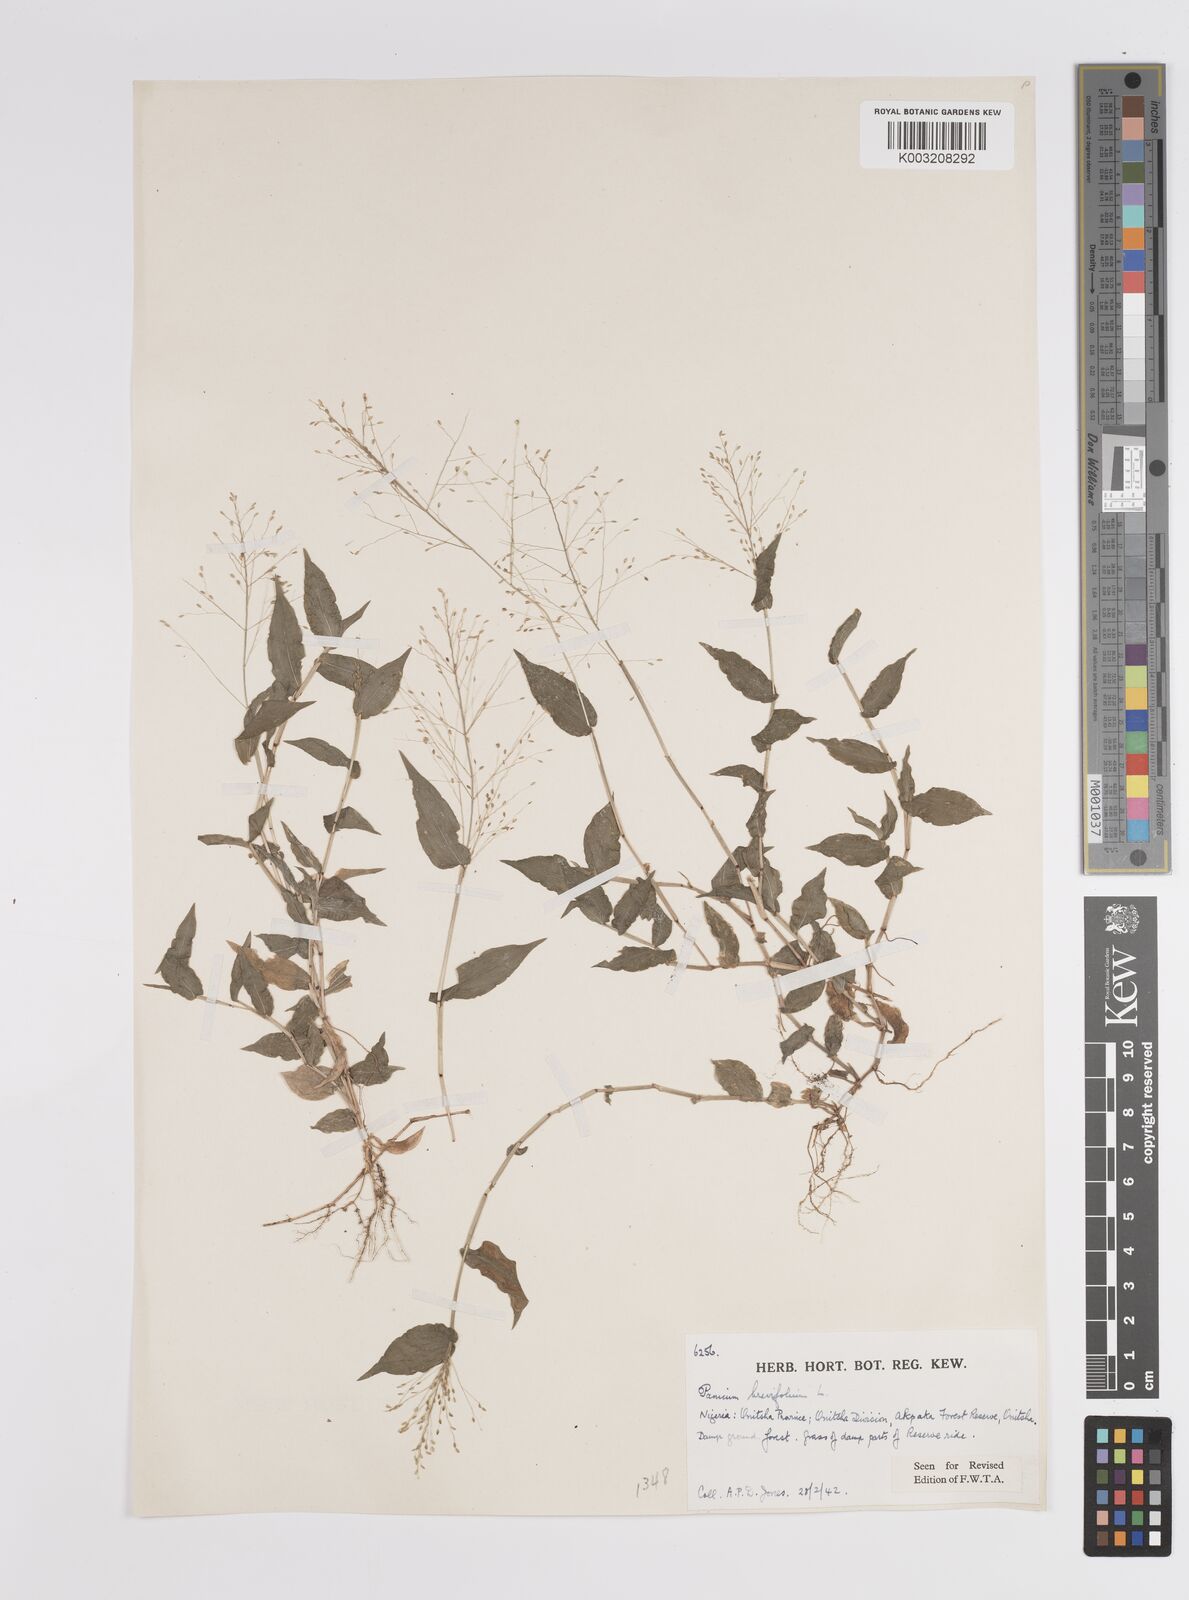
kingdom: Plantae
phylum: Tracheophyta
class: Liliopsida
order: Poales
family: Poaceae
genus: Panicum
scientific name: Panicum brevifolium
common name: Shortleaf panic grass
